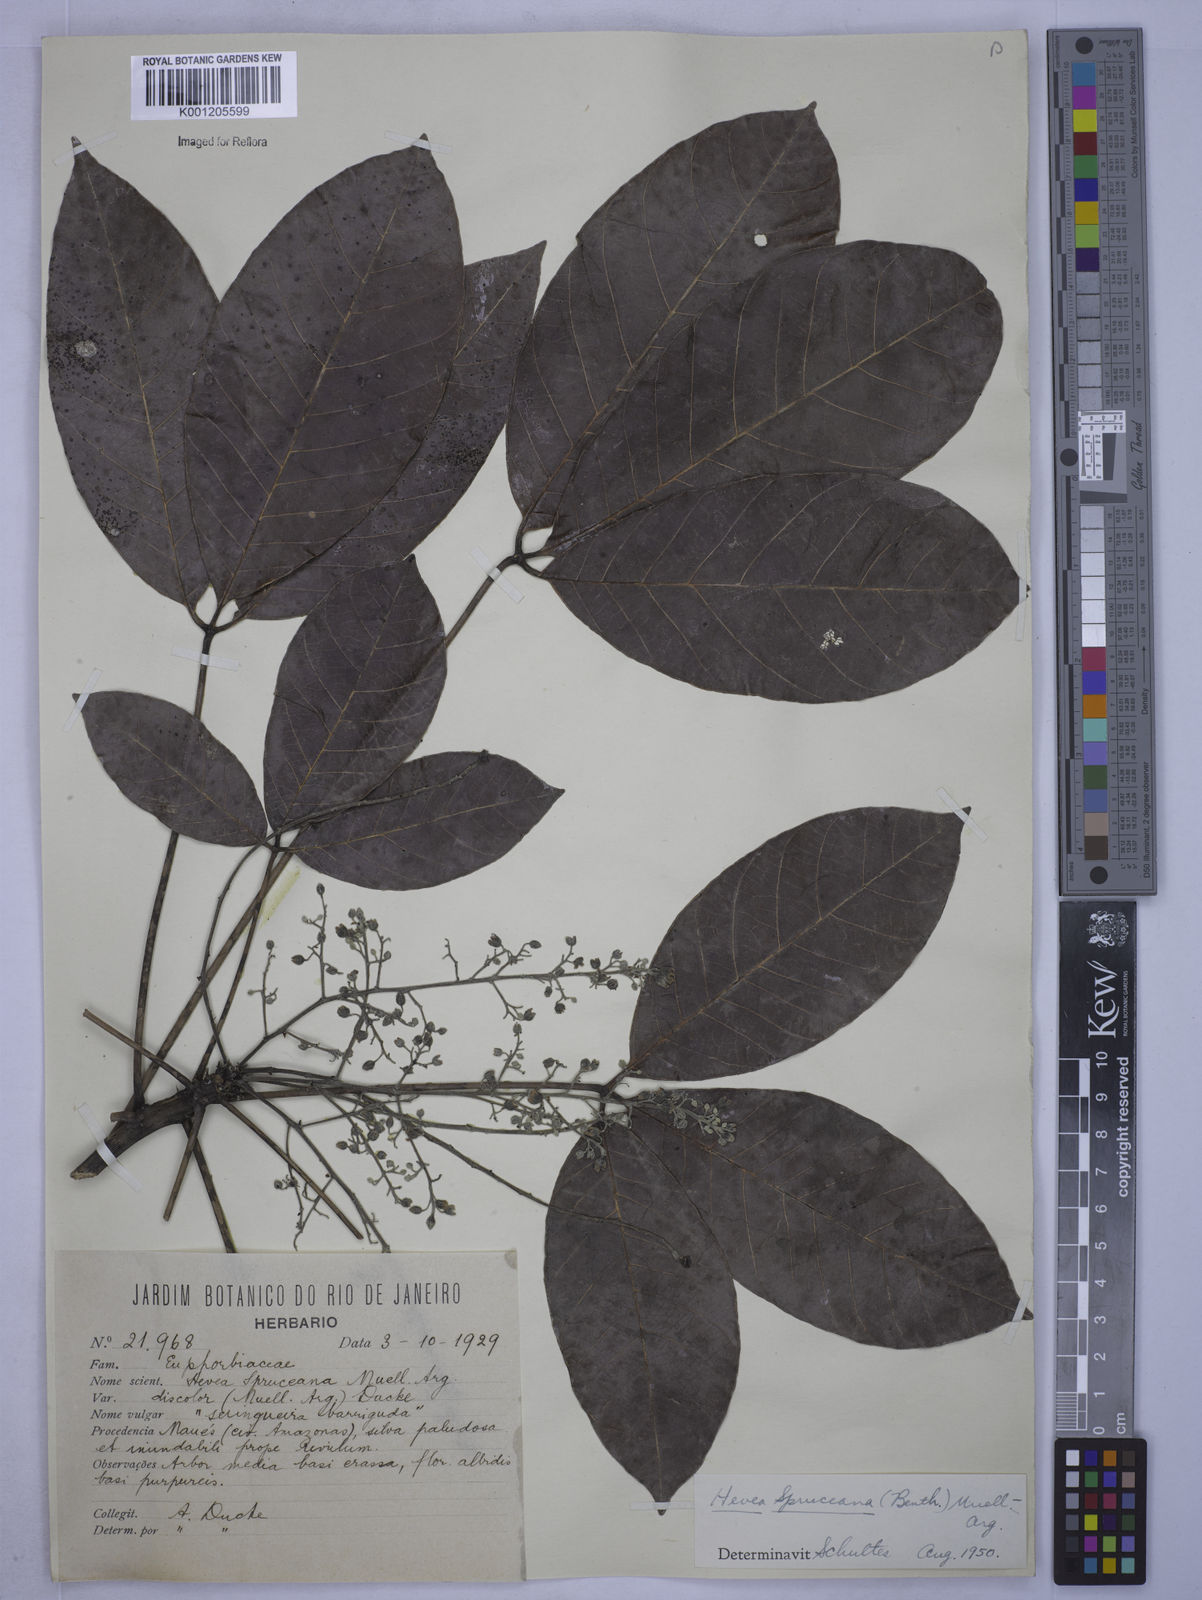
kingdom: Plantae
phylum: Tracheophyta
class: Magnoliopsida
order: Malpighiales
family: Euphorbiaceae
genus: Hevea
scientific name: Hevea
